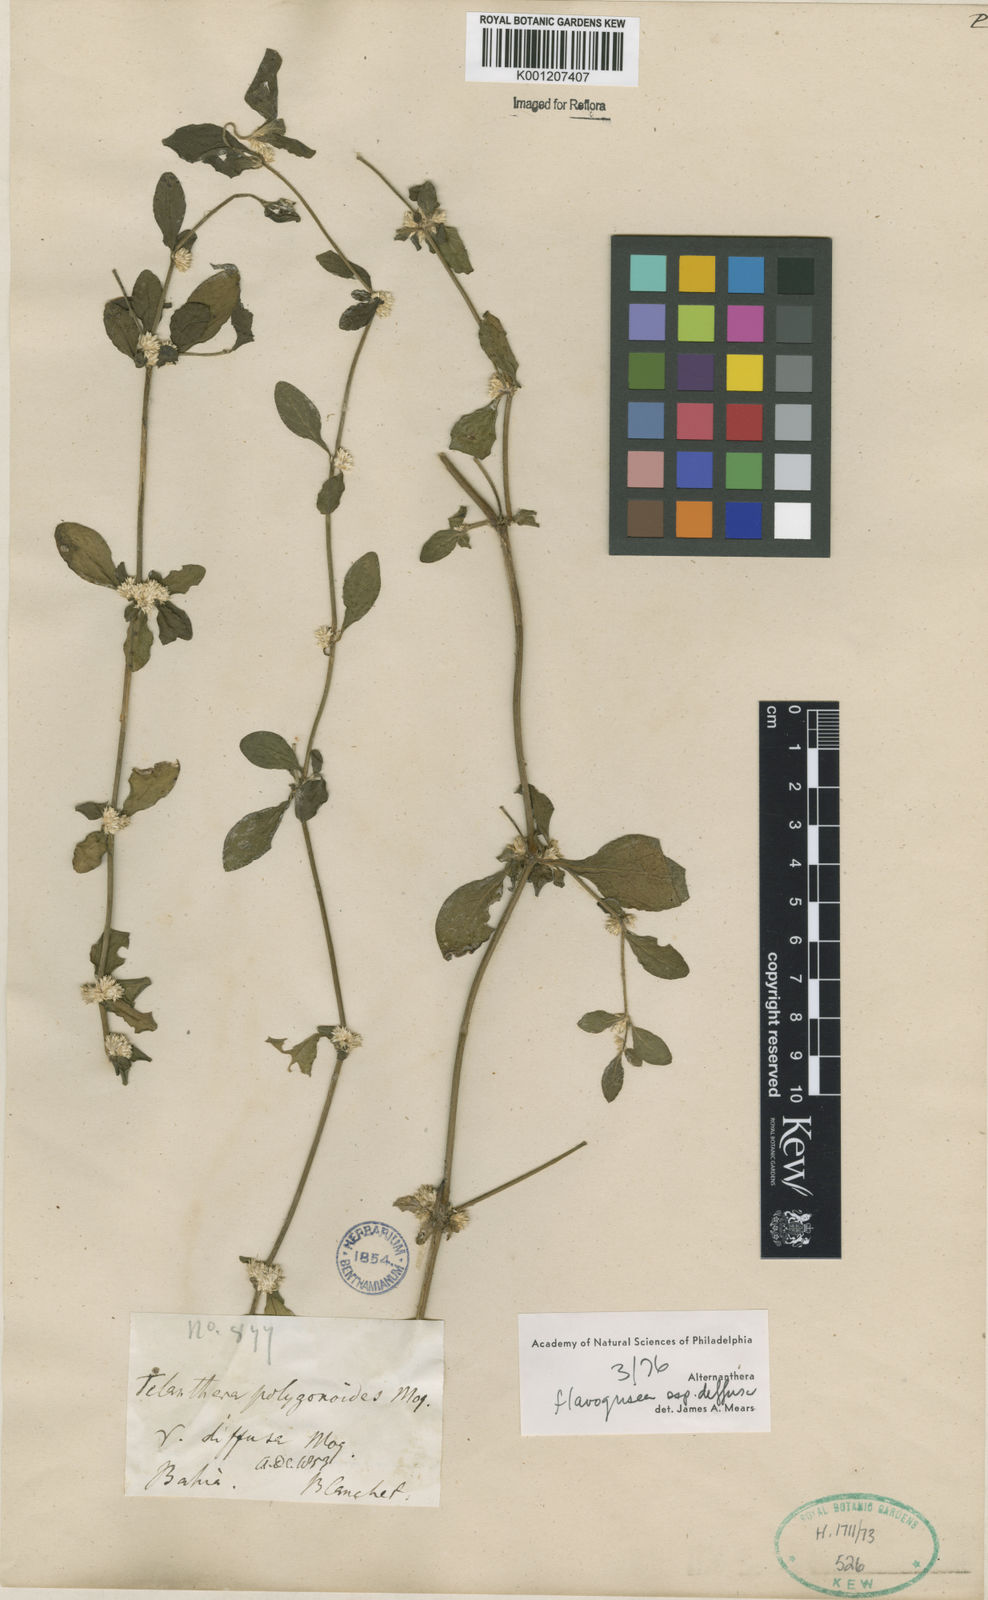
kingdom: Plantae
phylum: Tracheophyta
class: Magnoliopsida
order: Caryophyllales
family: Amaranthaceae
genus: Alternanthera
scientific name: Alternanthera halimifolia
